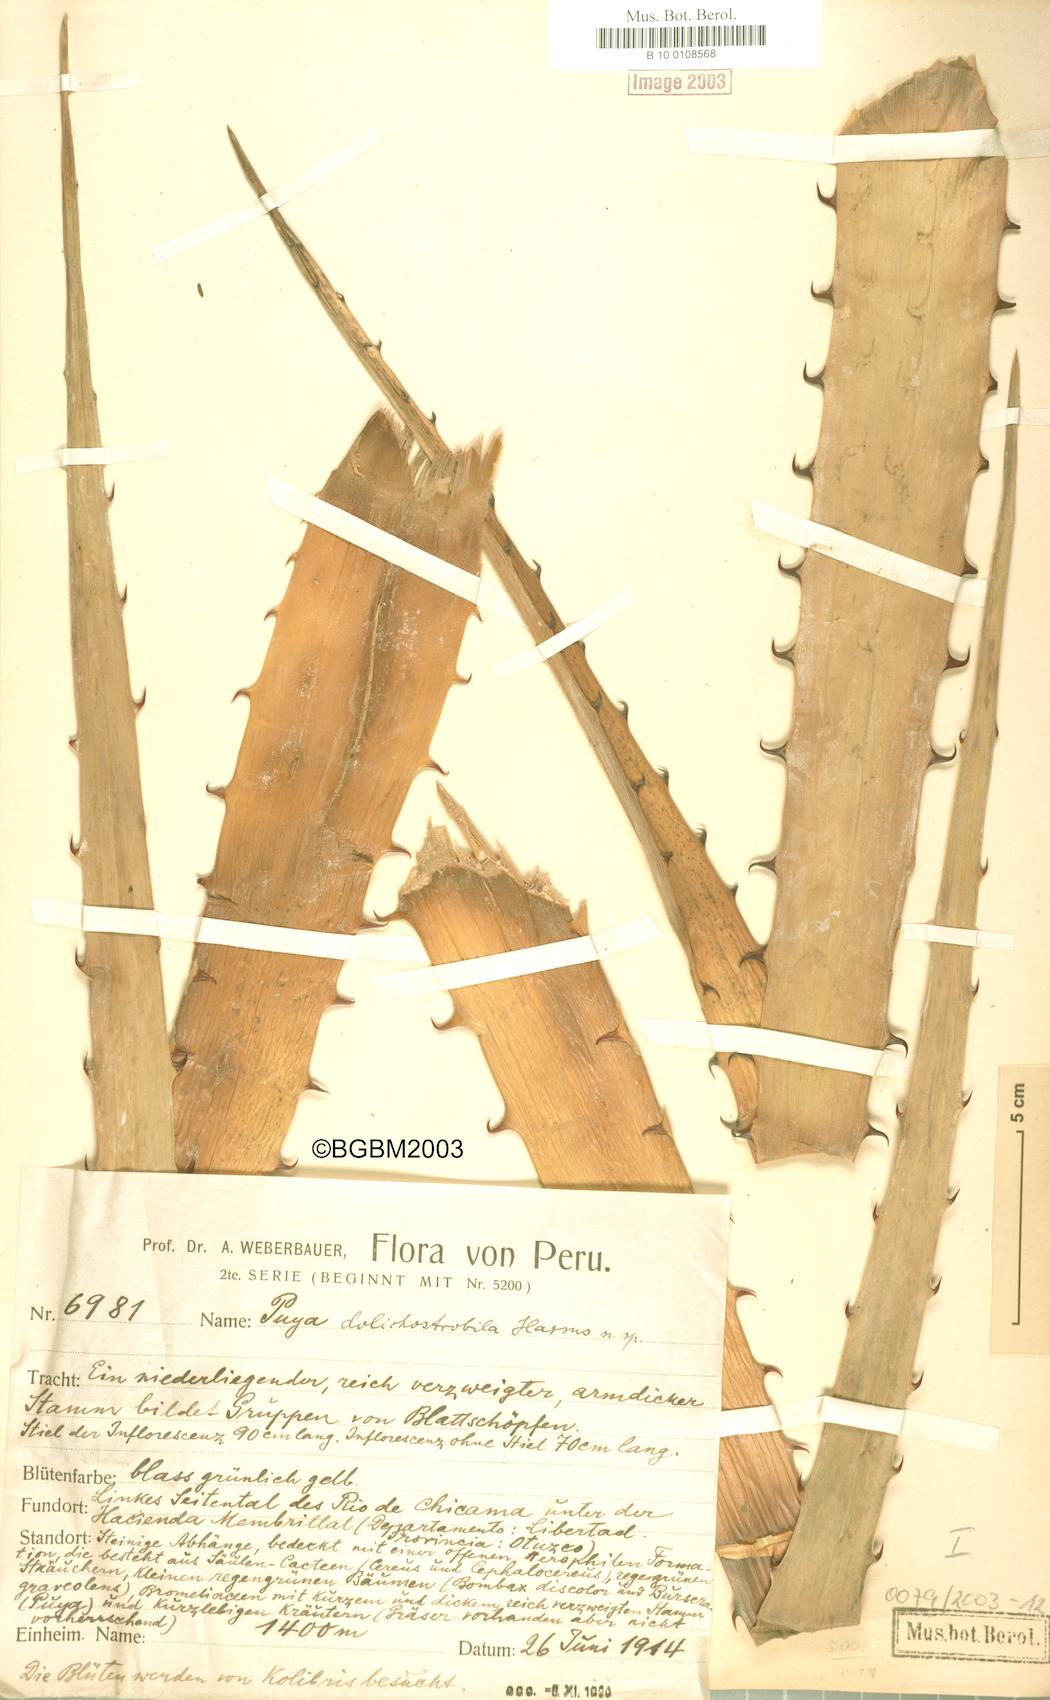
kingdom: Plantae
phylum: Tracheophyta
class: Liliopsida
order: Poales
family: Bromeliaceae
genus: Puya
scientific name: Puya dolichostrobila
